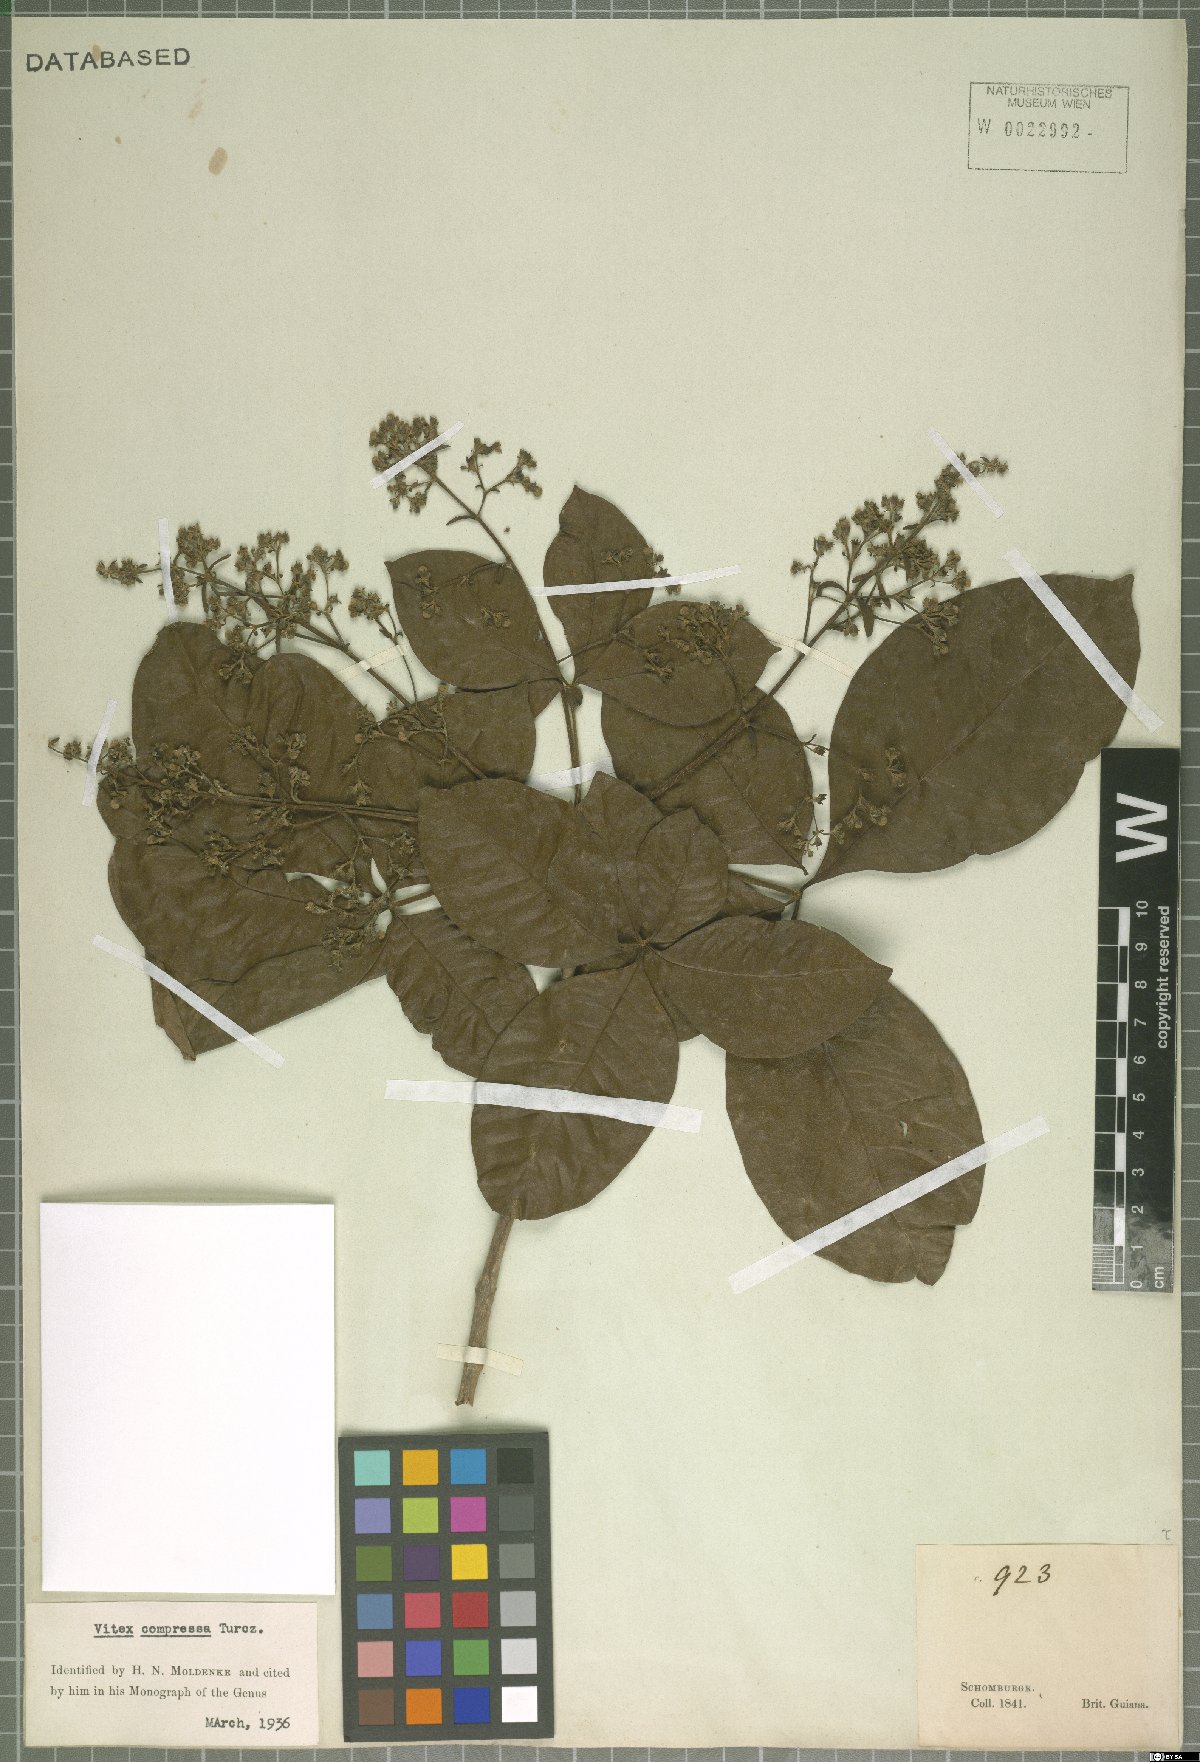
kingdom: Plantae
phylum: Tracheophyta
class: Magnoliopsida
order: Lamiales
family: Lamiaceae
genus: Vitex
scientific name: Vitex compressa
